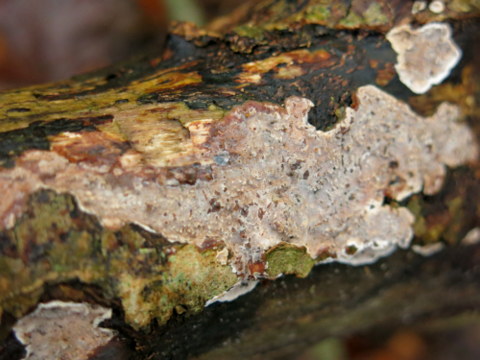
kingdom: Fungi
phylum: Basidiomycota
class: Agaricomycetes
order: Auriculariales
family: Auriculariaceae
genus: Heteroradulum
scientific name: Heteroradulum deglubens
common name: bævreskorpe
